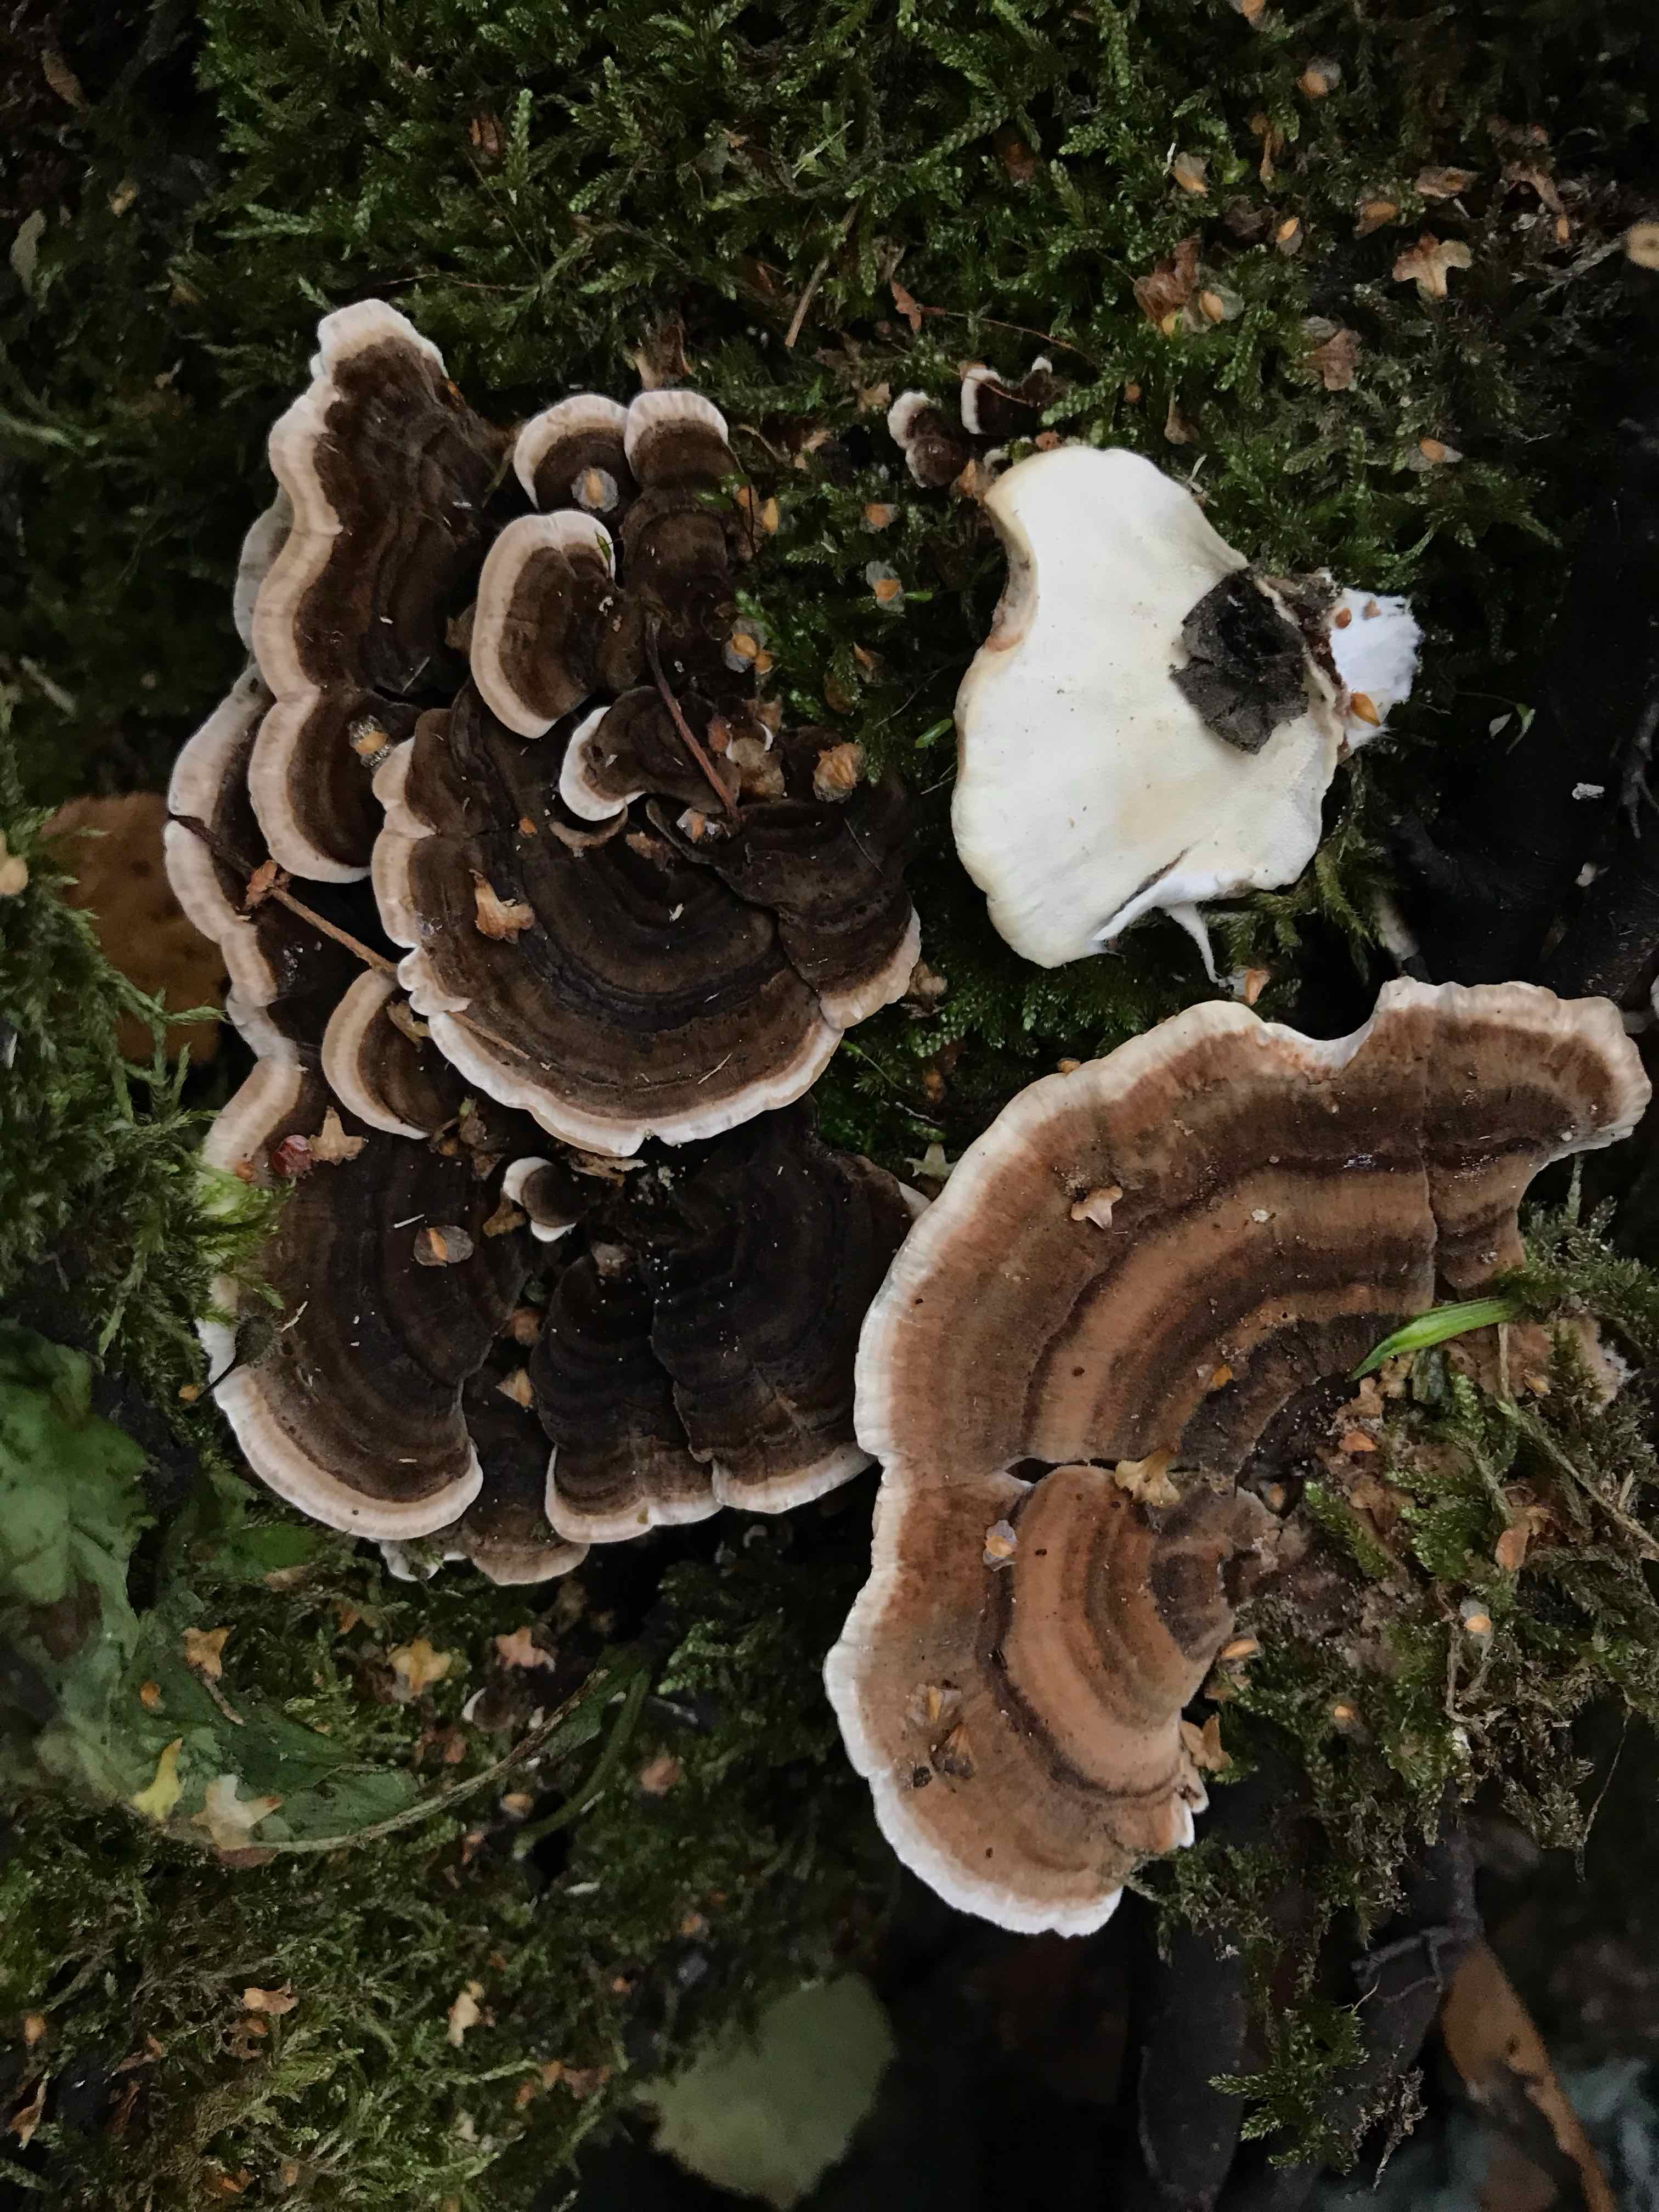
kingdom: Fungi
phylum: Basidiomycota
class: Agaricomycetes
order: Polyporales
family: Polyporaceae
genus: Trametes
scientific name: Trametes versicolor
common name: broget læderporesvamp
